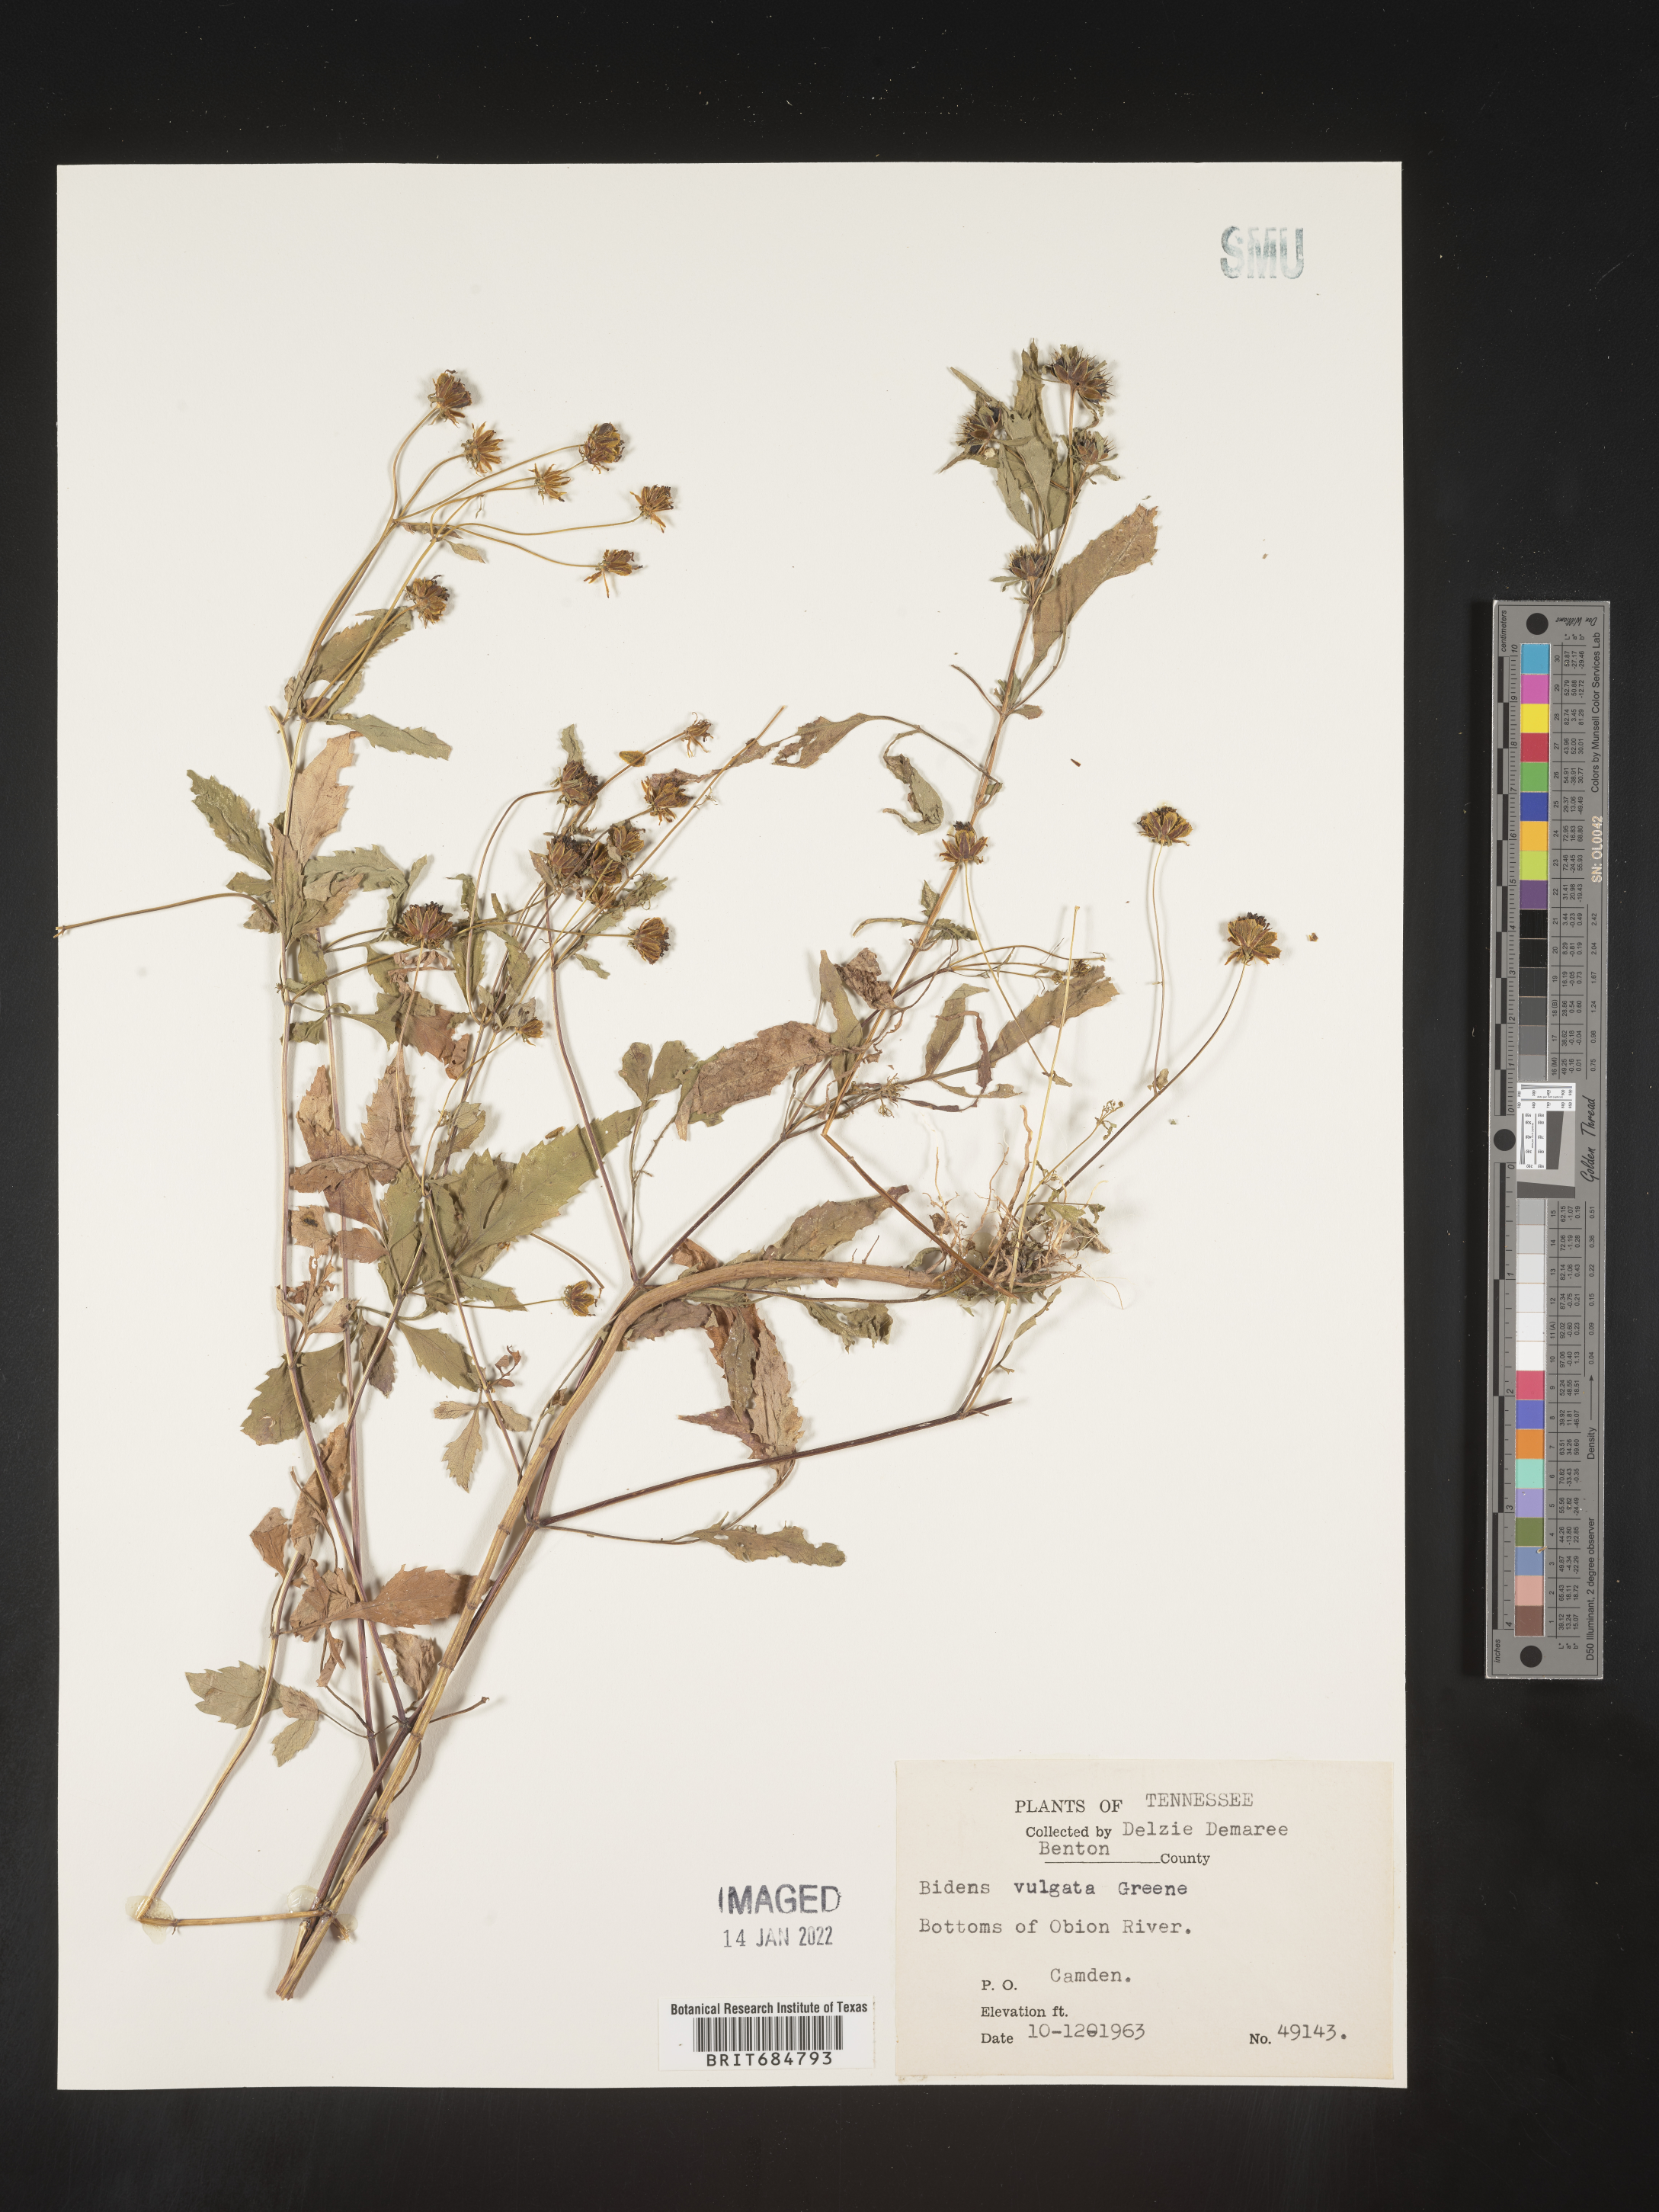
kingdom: Plantae
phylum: Tracheophyta
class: Magnoliopsida
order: Asterales
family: Asteraceae
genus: Bidens
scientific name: Bidens vulgata
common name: Tall beggarticks
